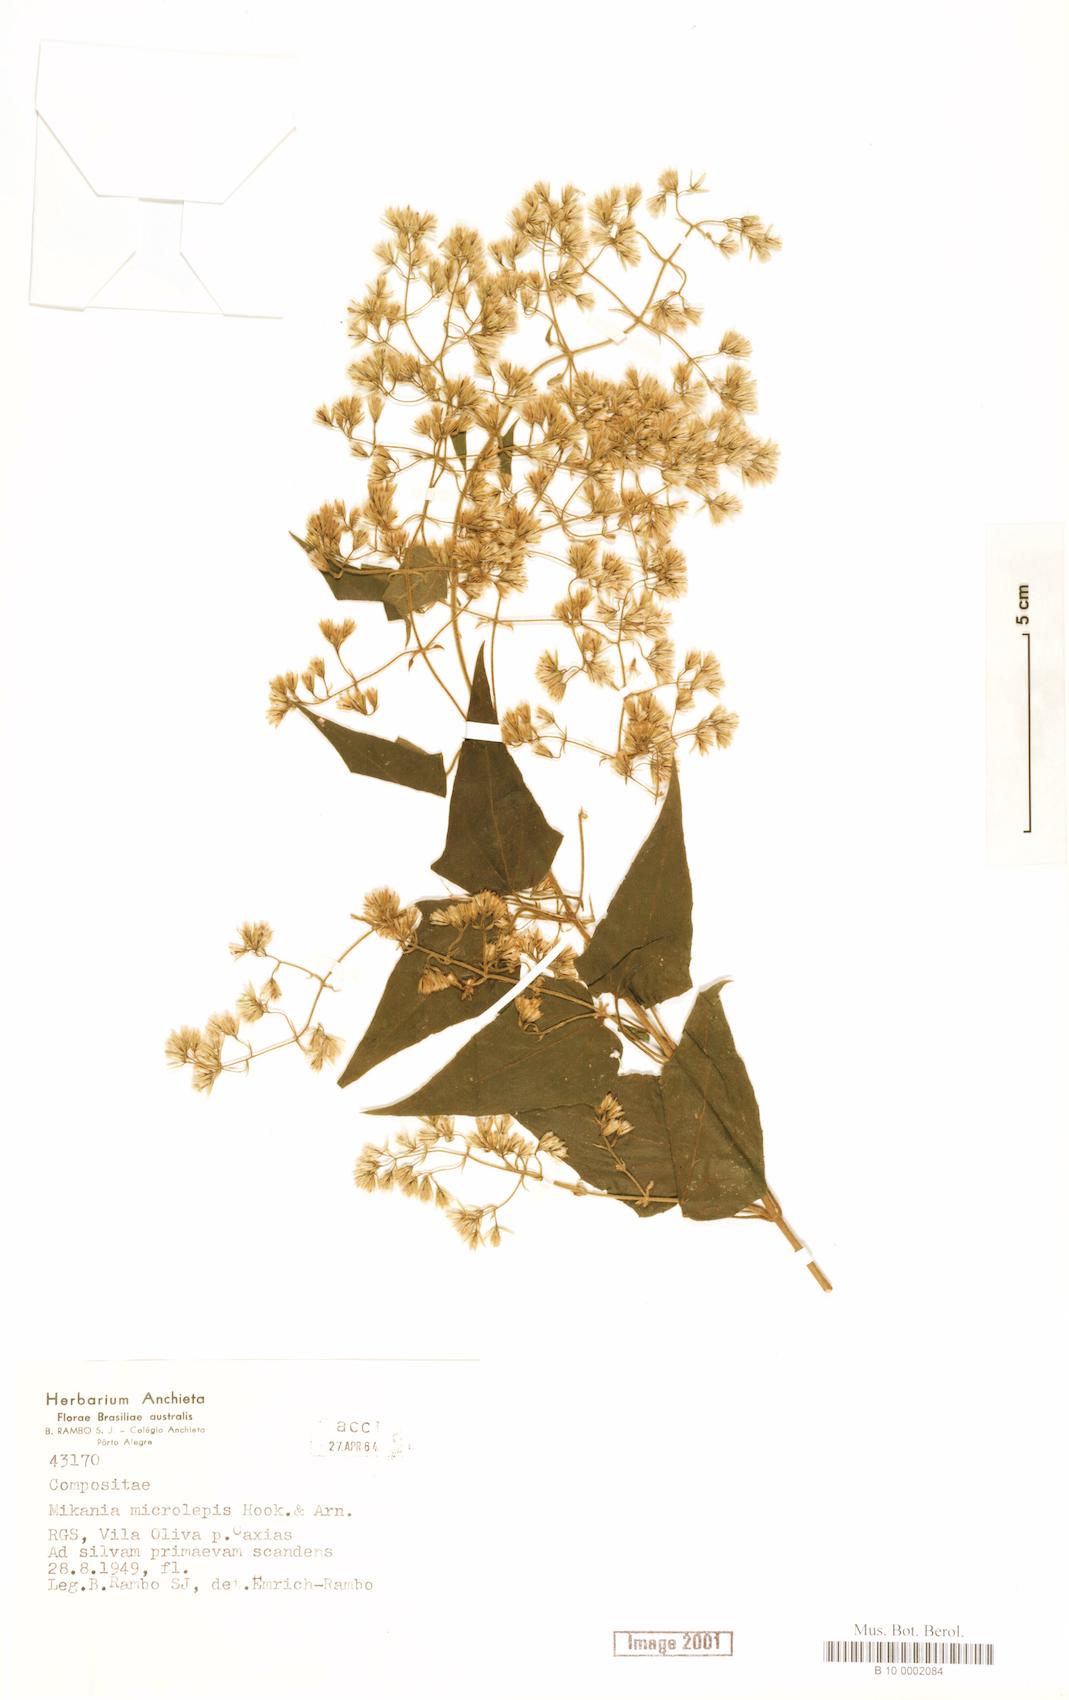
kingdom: Plantae
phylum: Tracheophyta
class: Magnoliopsida
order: Asterales
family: Asteraceae
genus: Mikania
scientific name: Mikania microlepis
